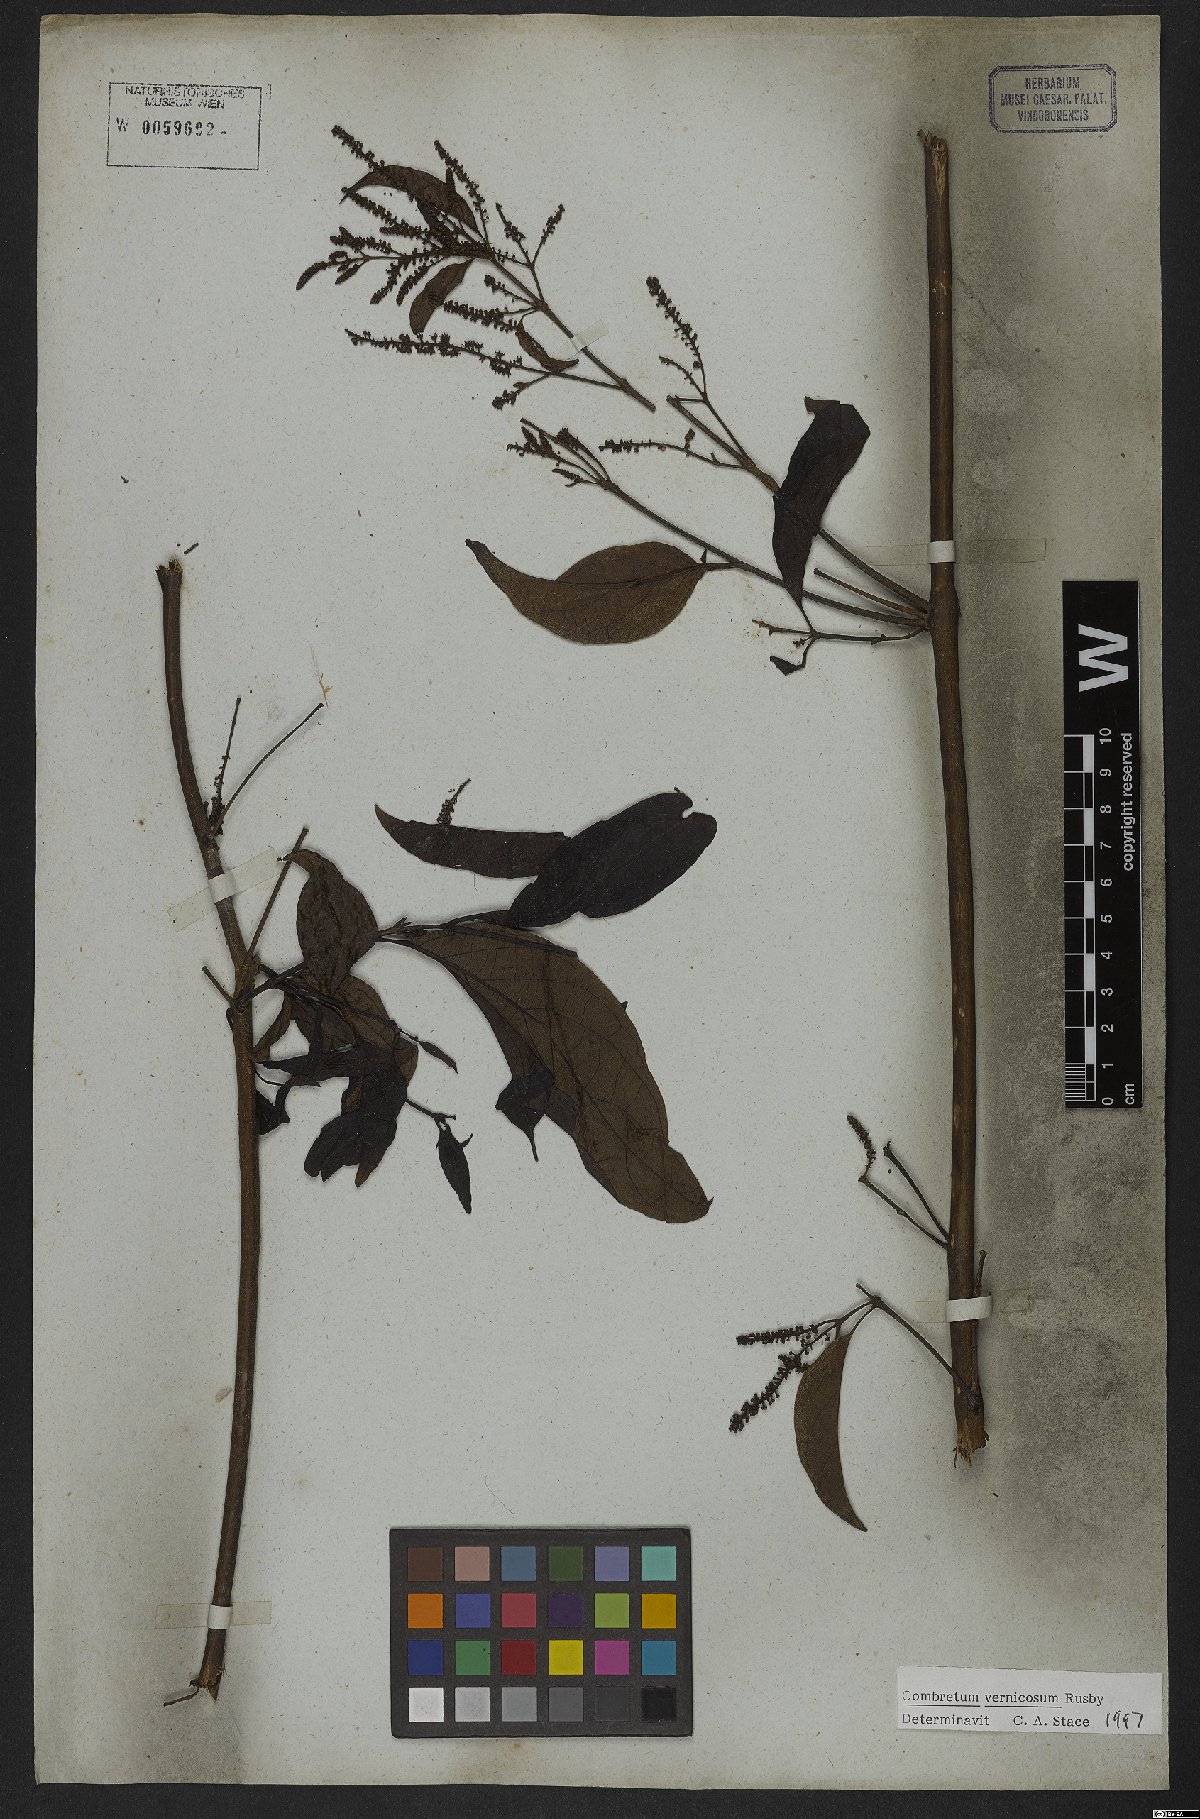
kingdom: Plantae
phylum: Tracheophyta
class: Magnoliopsida
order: Myrtales
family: Combretaceae
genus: Combretum
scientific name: Combretum vernicosum
